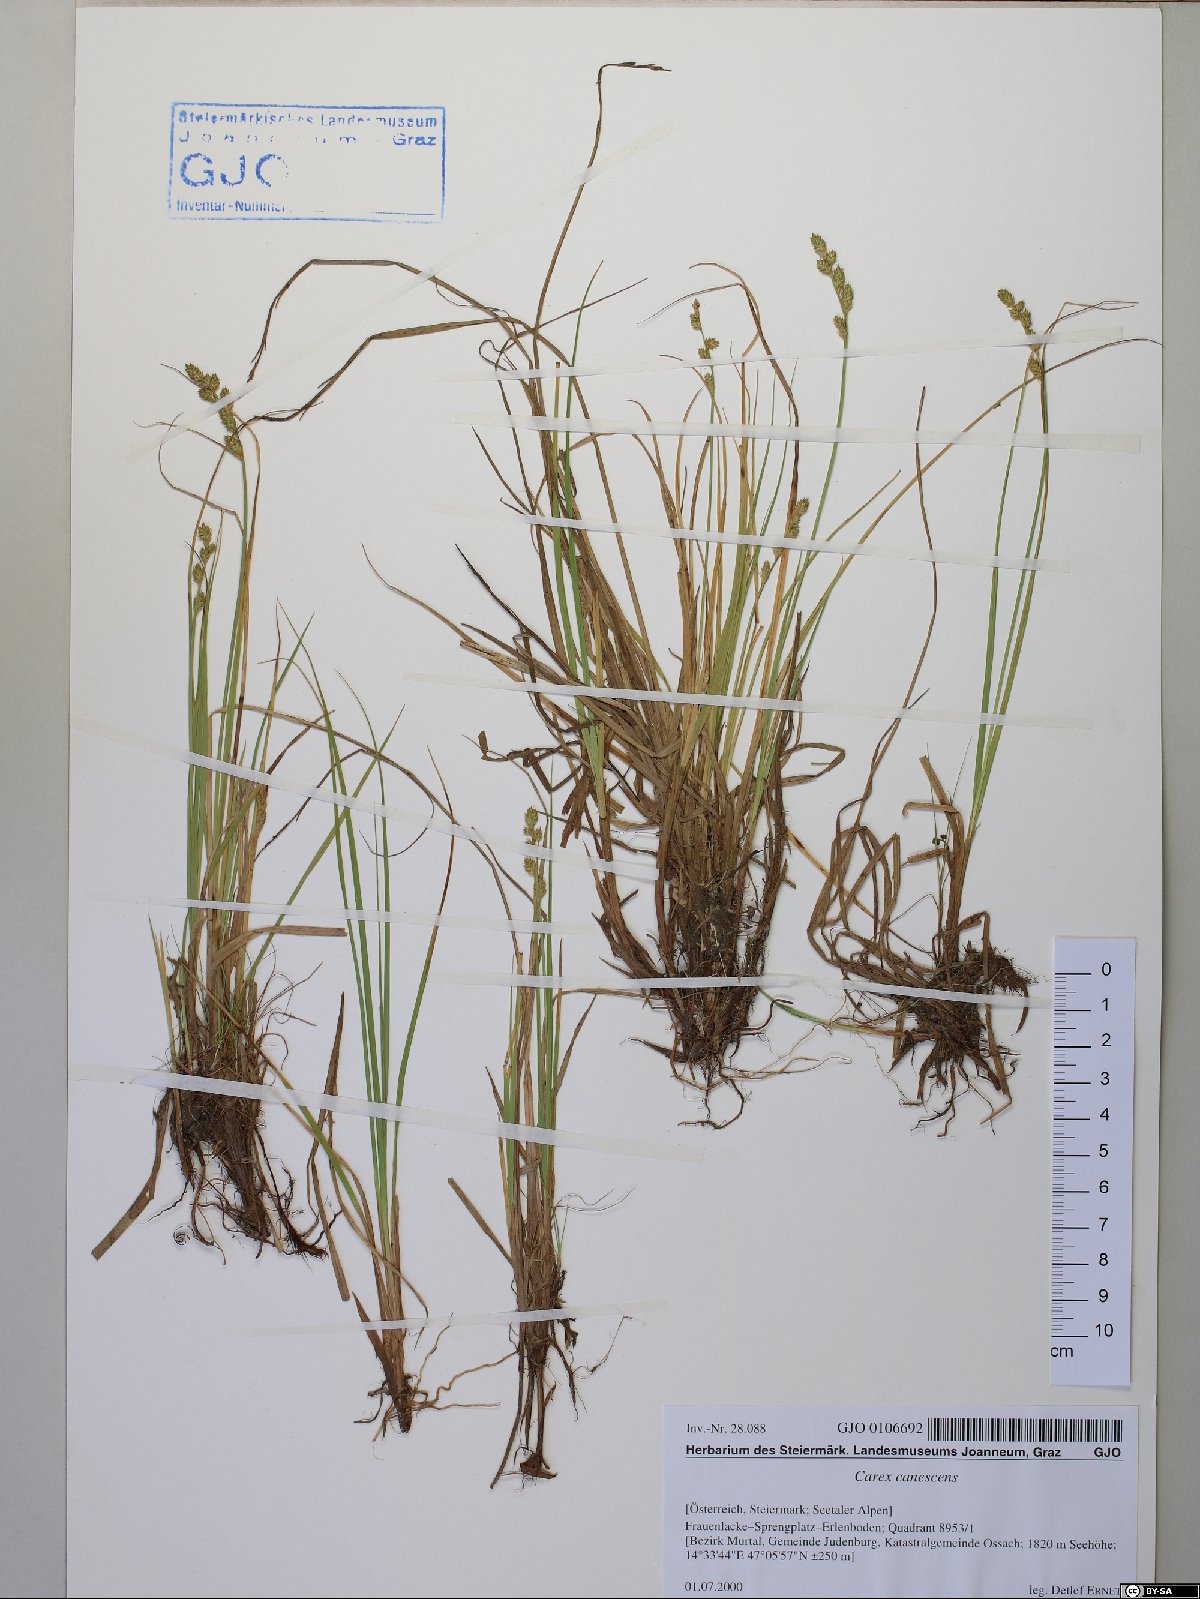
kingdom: Plantae
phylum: Tracheophyta
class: Liliopsida
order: Poales
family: Cyperaceae
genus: Carex
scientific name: Carex canescens
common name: White sedge
